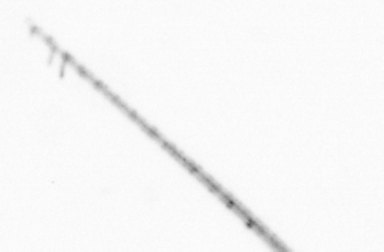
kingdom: Animalia
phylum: Arthropoda
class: Copepoda
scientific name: Copepoda
